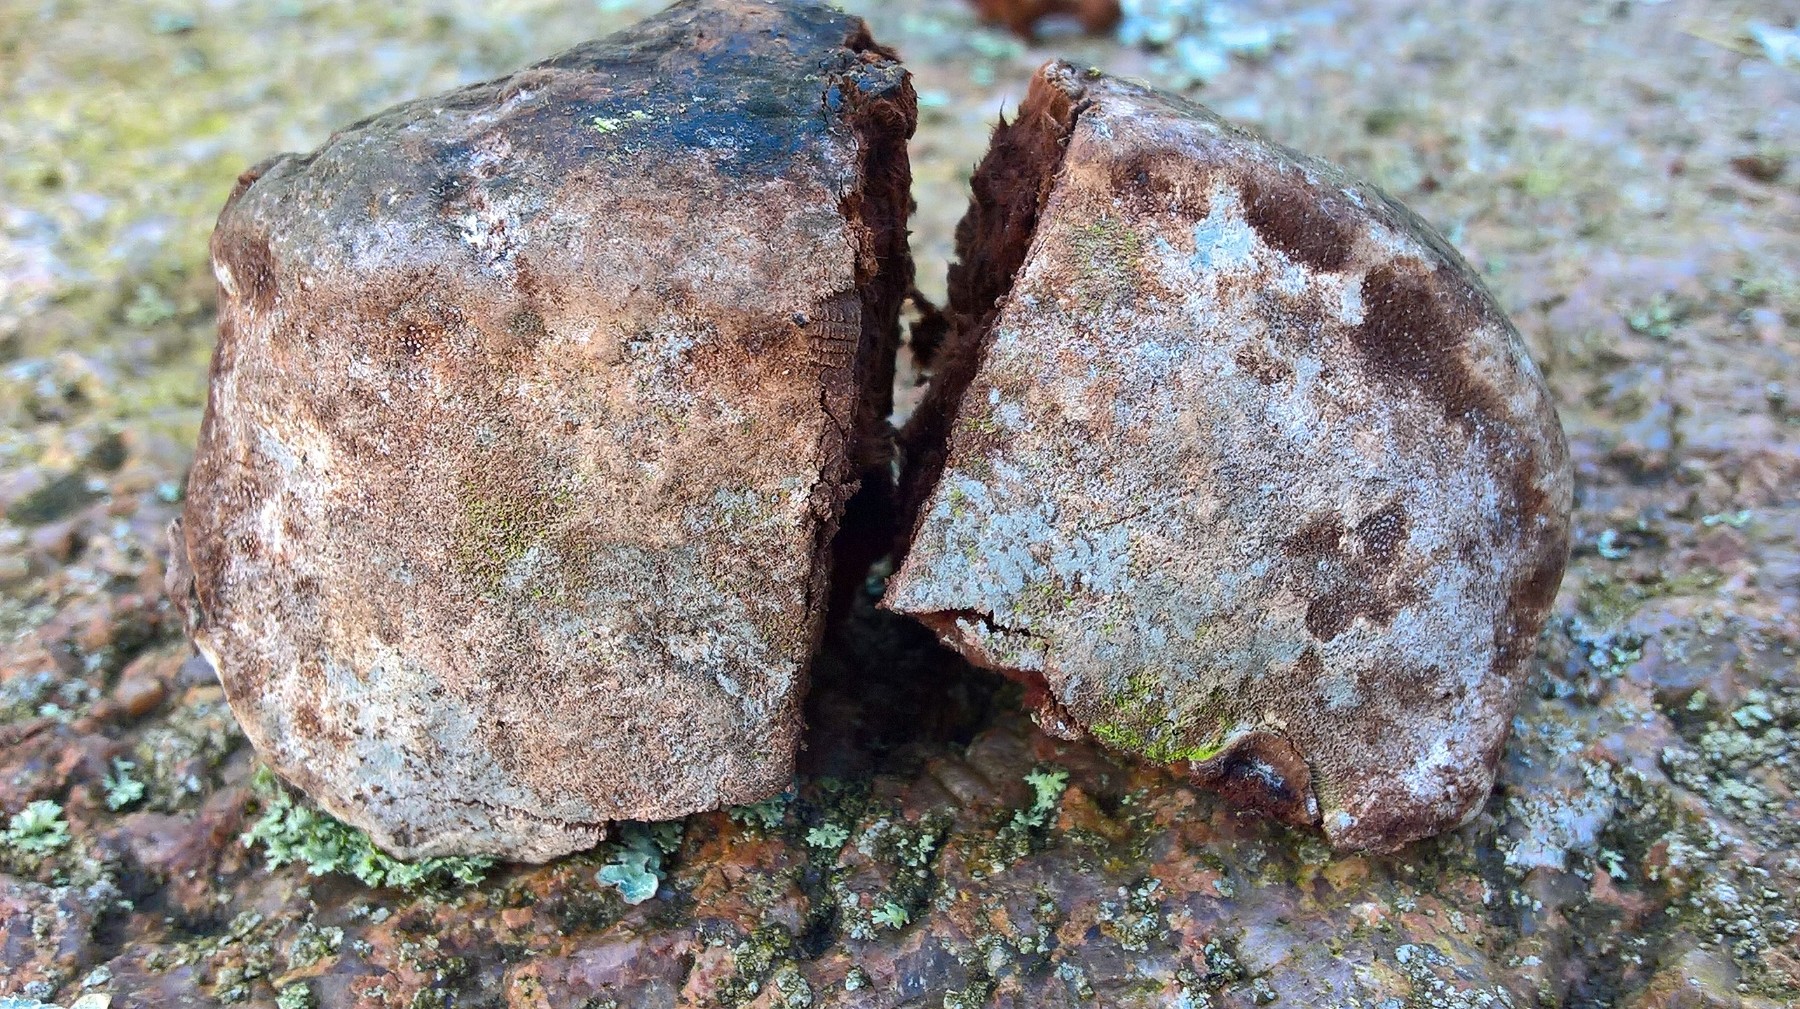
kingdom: Fungi
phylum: Basidiomycota
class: Agaricomycetes
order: Polyporales
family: Polyporaceae
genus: Ganoderma
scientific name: Ganoderma adspersum
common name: grov lakporesvamp
